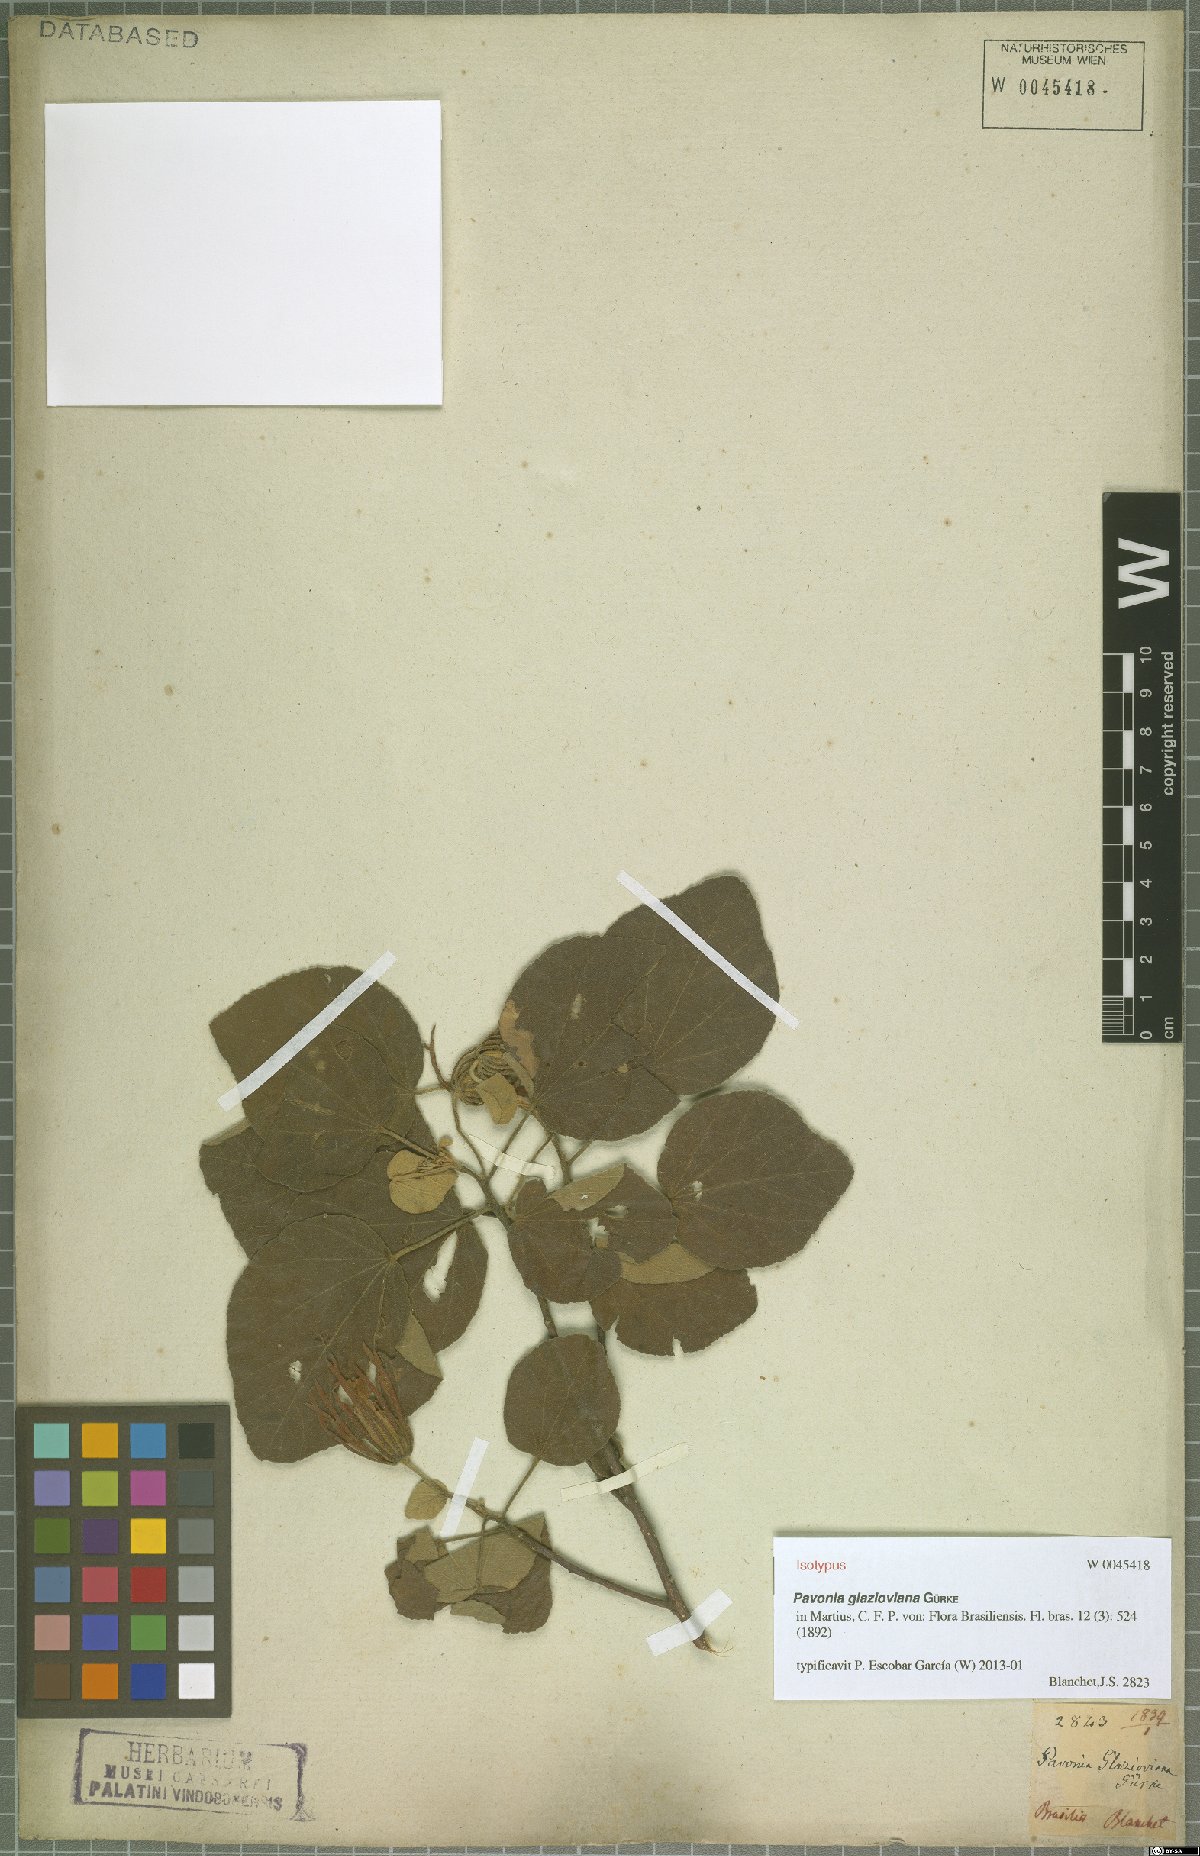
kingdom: Plantae
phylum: Tracheophyta
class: Magnoliopsida
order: Malvales
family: Malvaceae
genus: Pavonia
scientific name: Pavonia glazioviana
